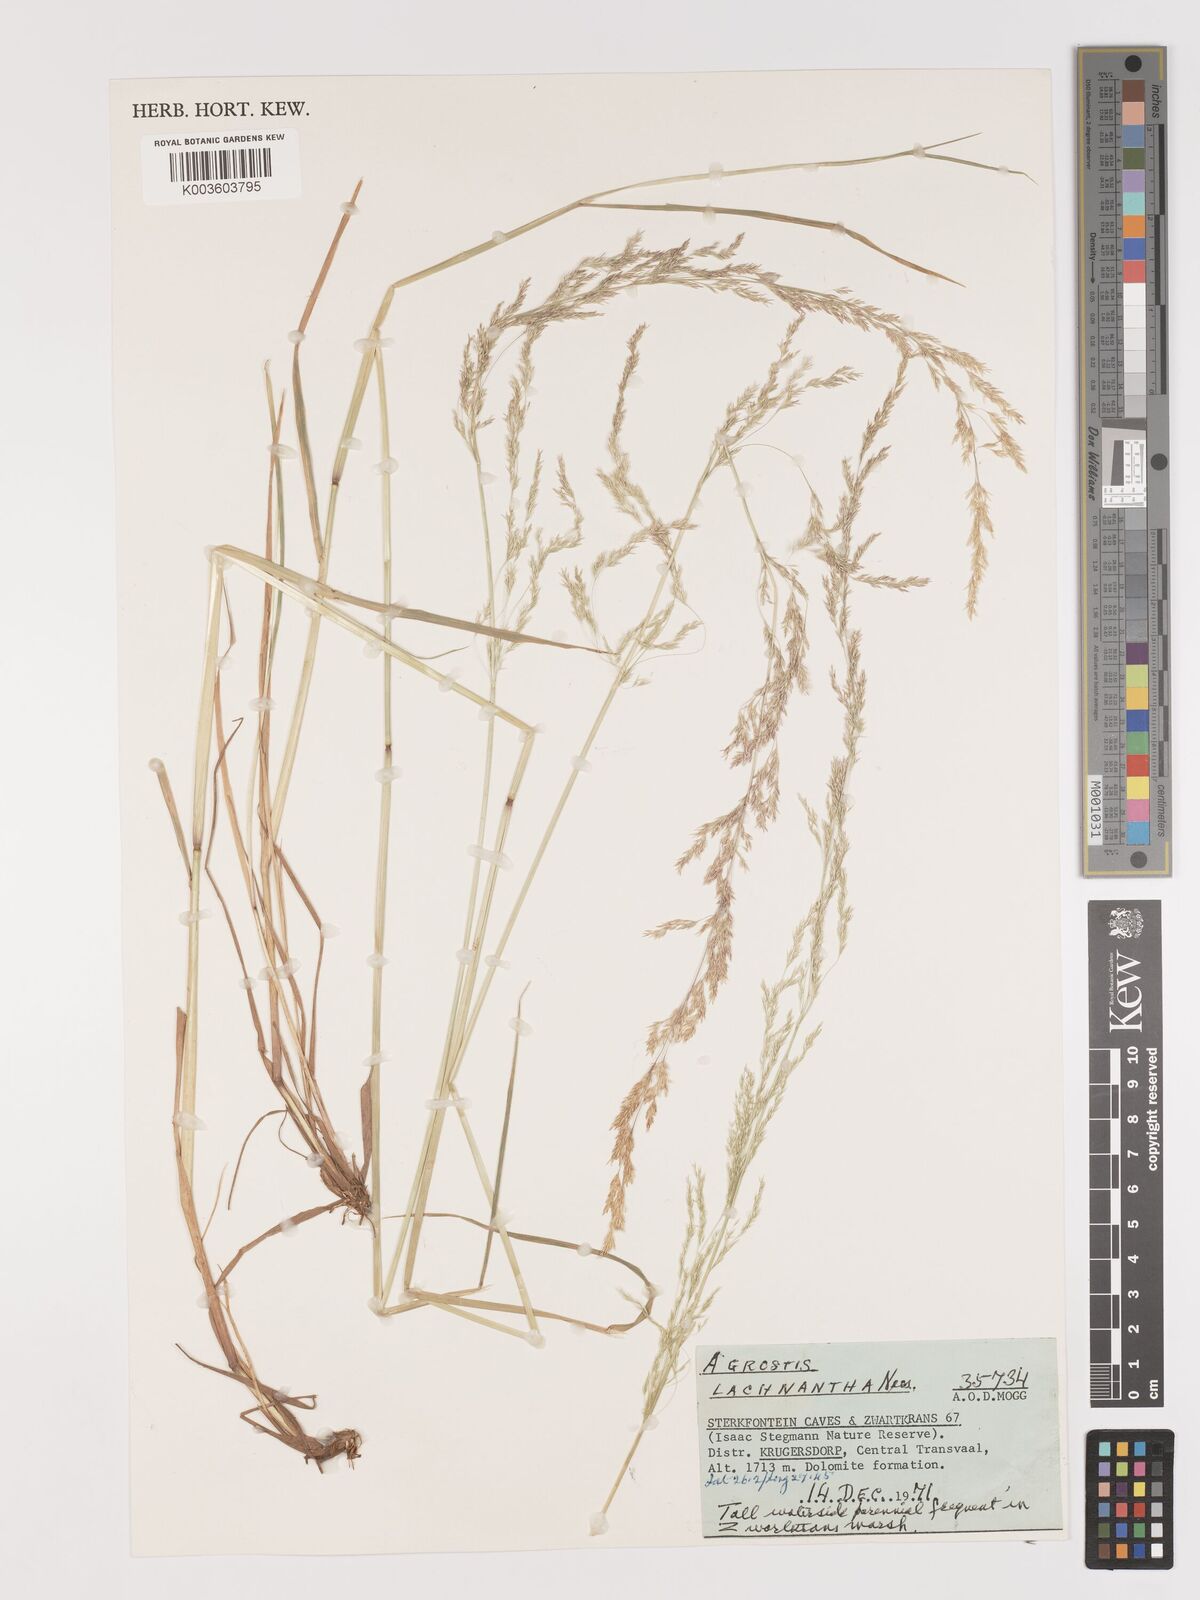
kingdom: Plantae
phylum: Tracheophyta
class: Liliopsida
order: Poales
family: Poaceae
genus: Lachnagrostis
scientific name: Lachnagrostis lachnantha
